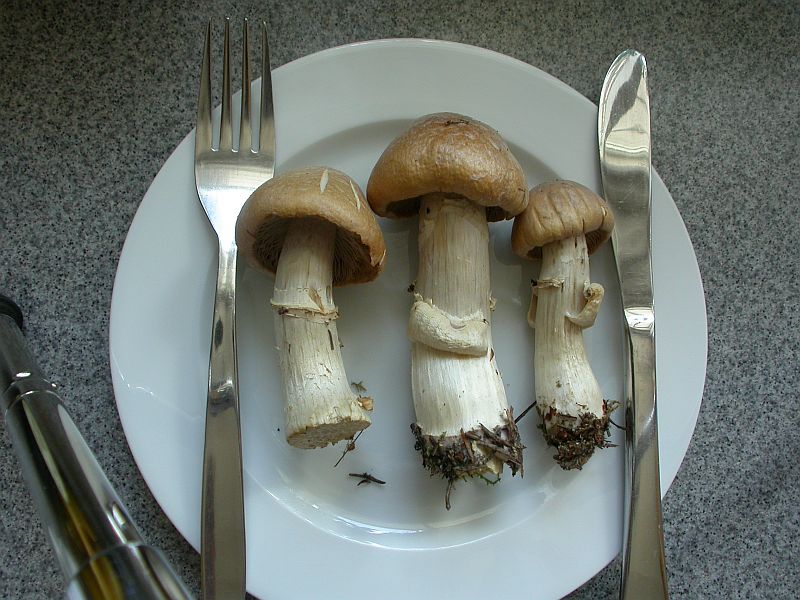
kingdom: Fungi
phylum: Basidiomycota
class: Agaricomycetes
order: Agaricales
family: Cortinariaceae
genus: Cortinarius
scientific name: Cortinarius caperatus
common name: klidhat
